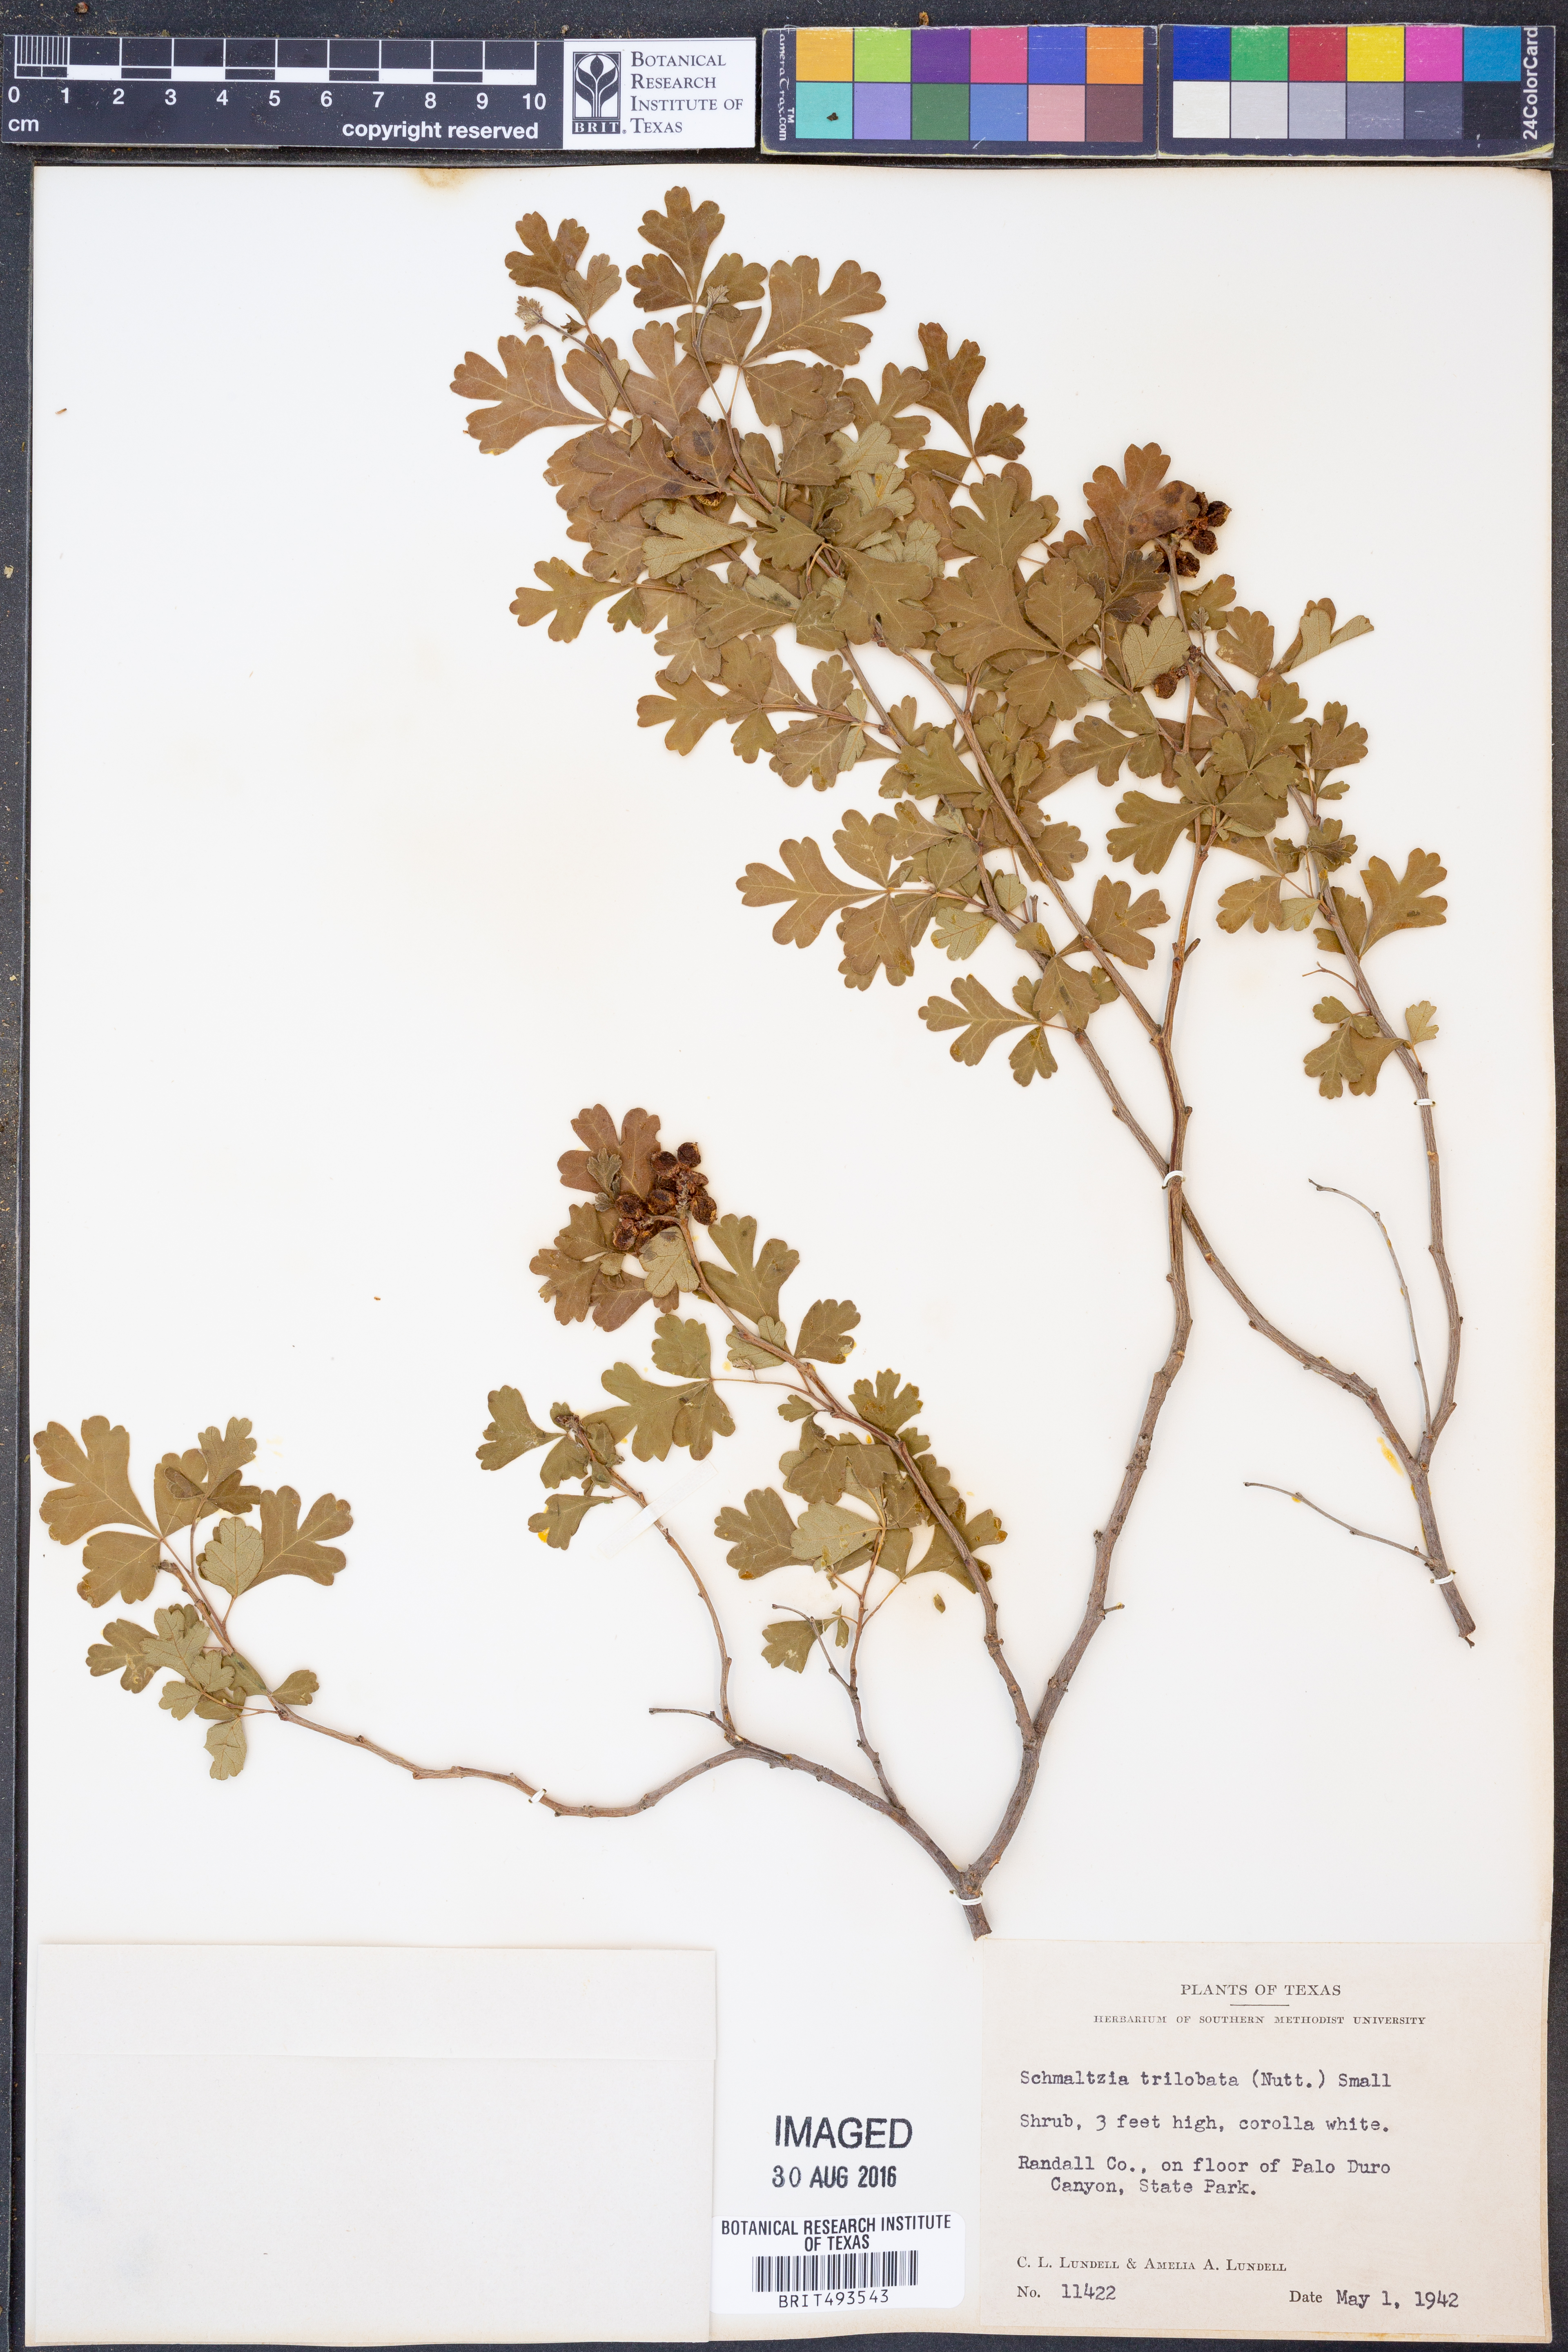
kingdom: Plantae
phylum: Tracheophyta
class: Magnoliopsida
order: Sapindales
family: Anacardiaceae
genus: Rhus
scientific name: Rhus trilobata
